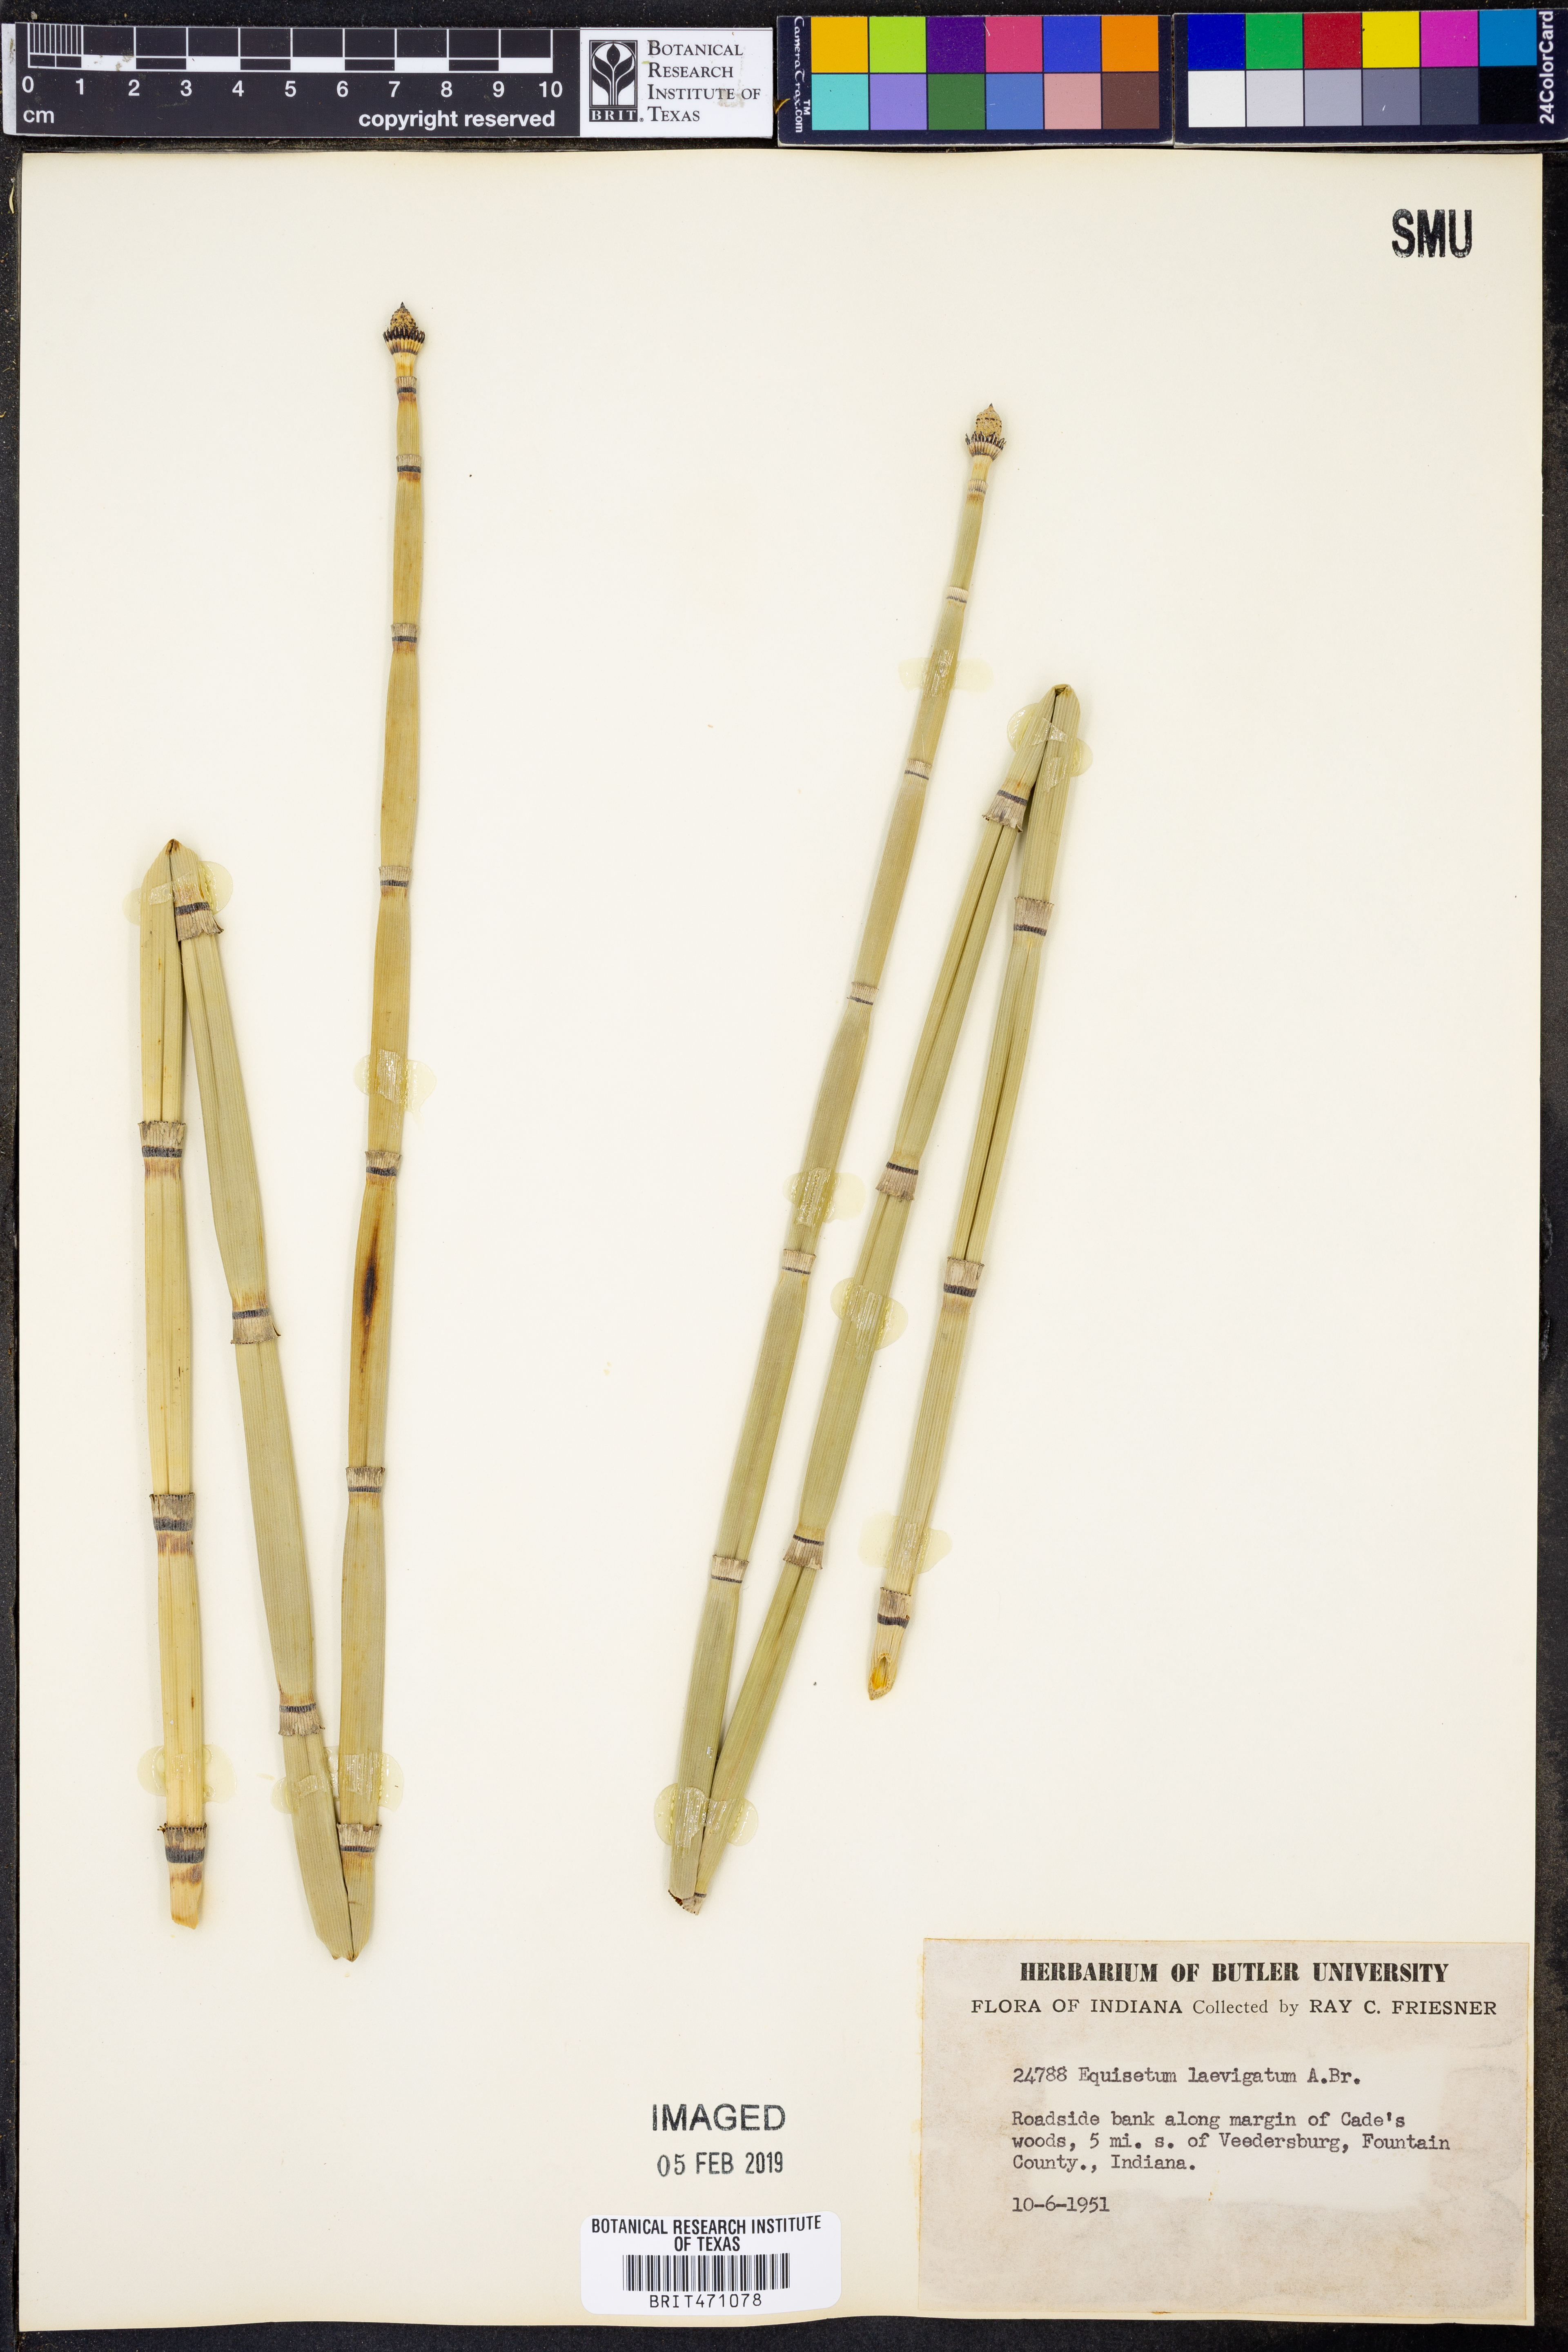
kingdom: Plantae
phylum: Tracheophyta
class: Polypodiopsida
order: Equisetales
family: Equisetaceae
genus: Equisetum
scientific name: Equisetum laevigatum
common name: Smooth scouring-rush
